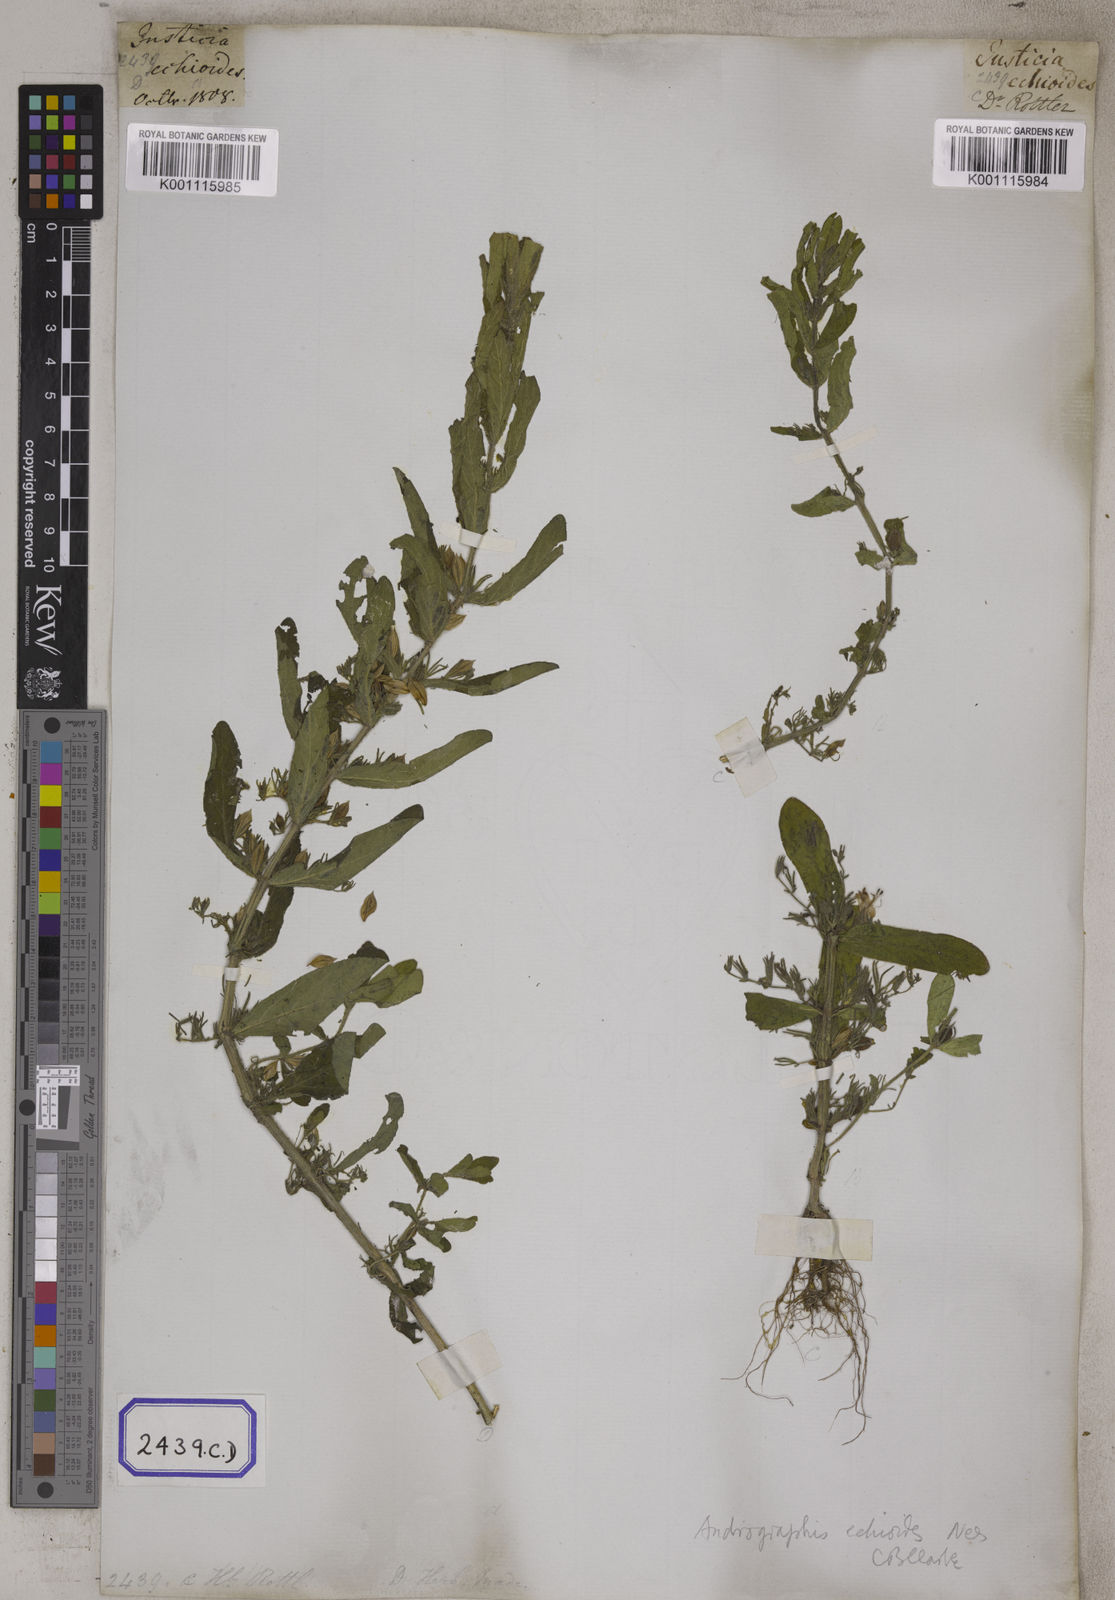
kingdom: Plantae
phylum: Tracheophyta
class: Magnoliopsida
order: Lamiales
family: Acanthaceae
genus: Andrographis
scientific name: Andrographis echioides
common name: False waterwillow
